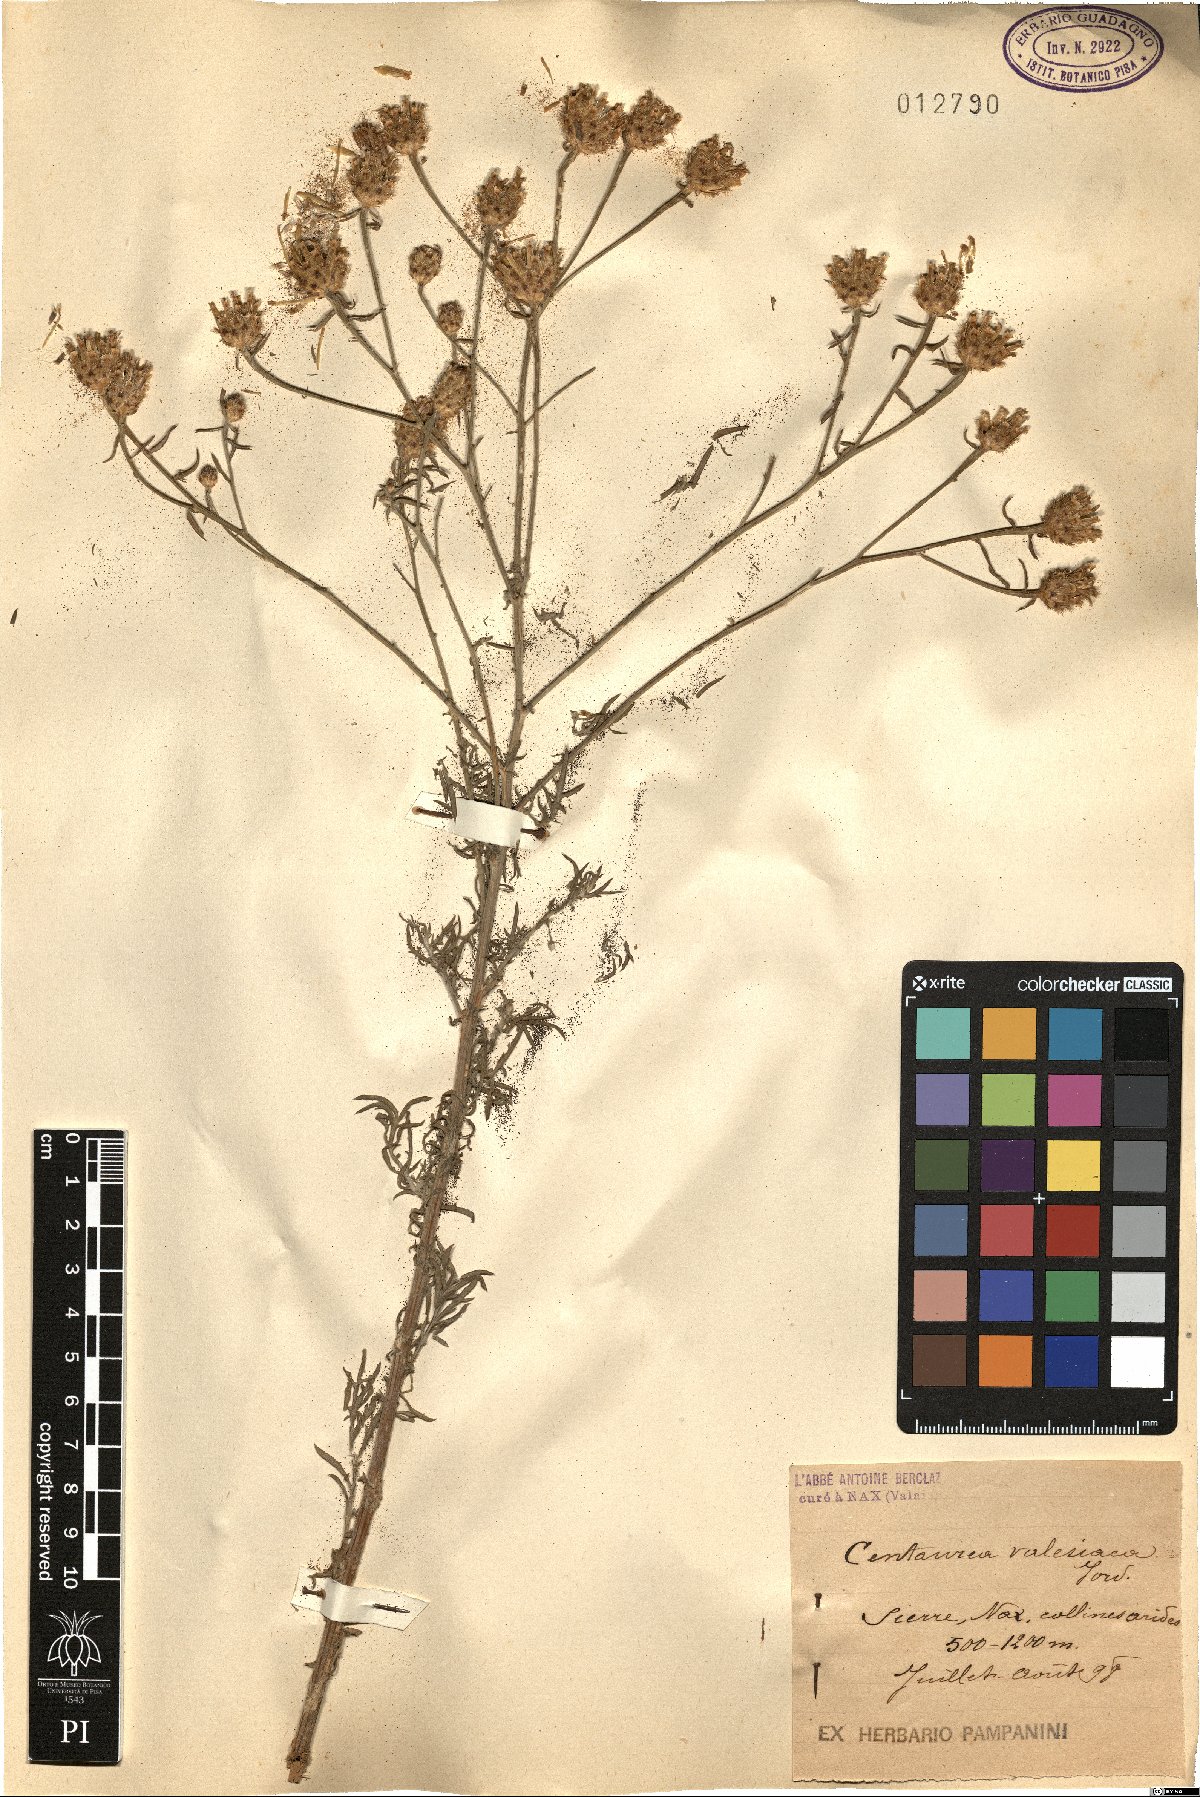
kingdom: Plantae
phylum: Tracheophyta
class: Magnoliopsida
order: Asterales
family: Asteraceae
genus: Centaurea
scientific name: Centaurea valesiaca
